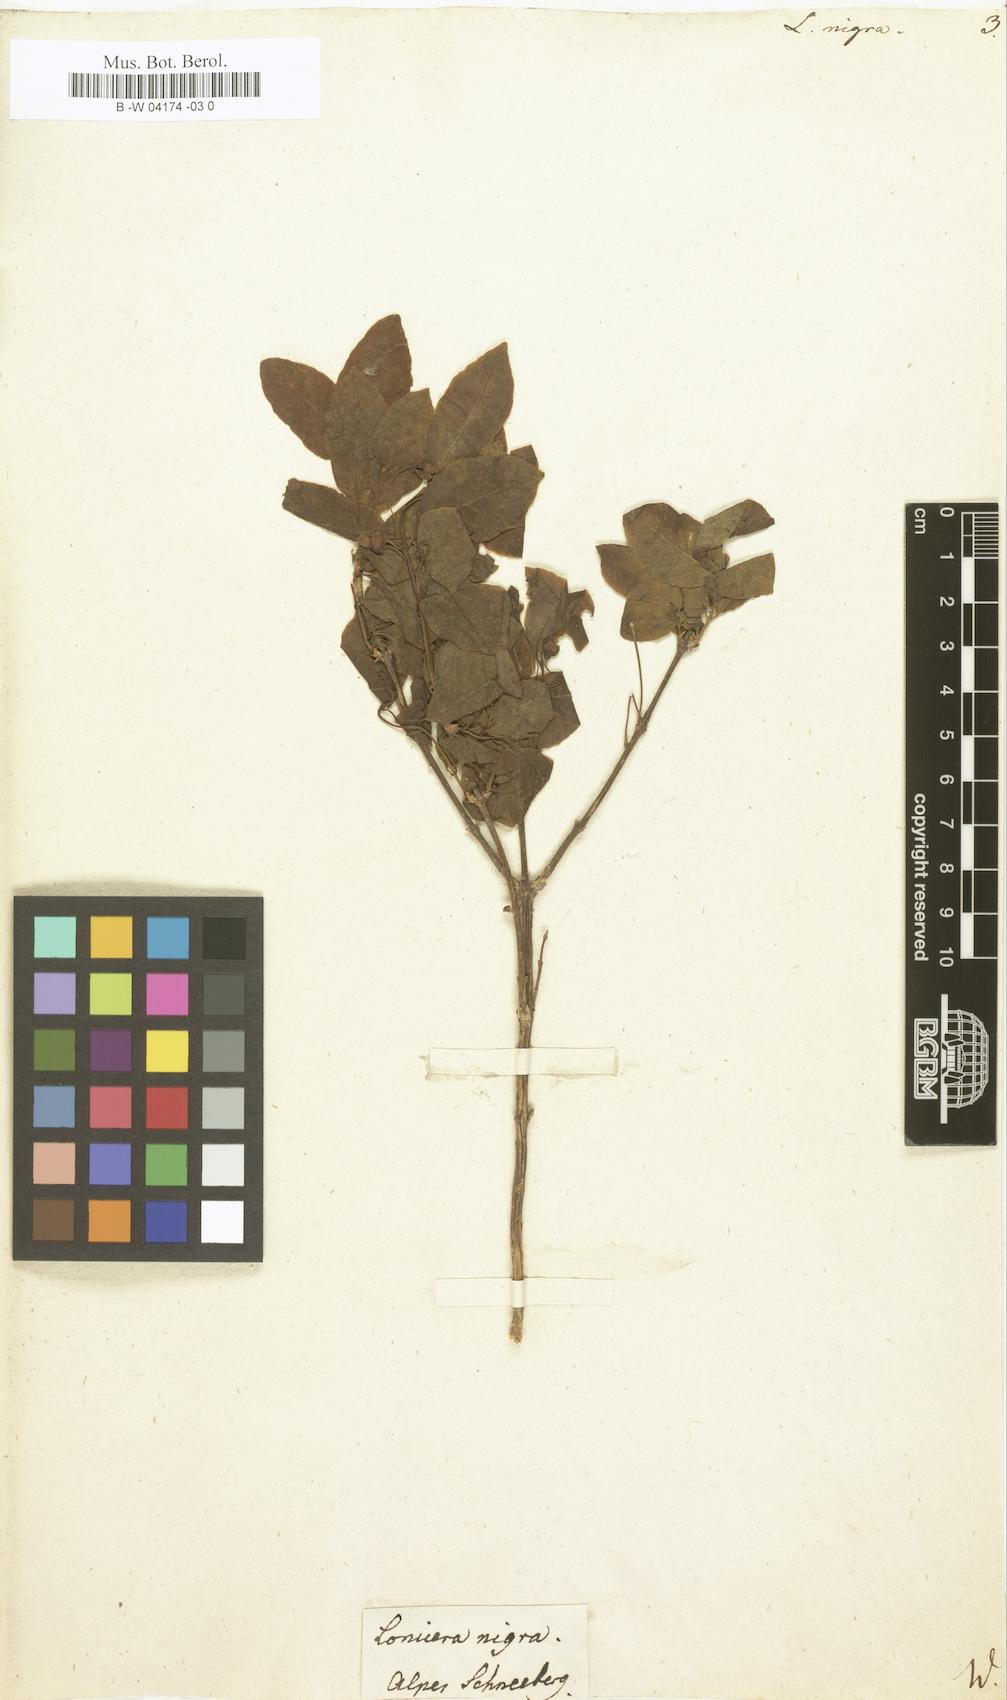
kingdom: Plantae
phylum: Tracheophyta
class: Magnoliopsida
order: Dipsacales
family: Caprifoliaceae
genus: Lonicera
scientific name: Lonicera nigra
